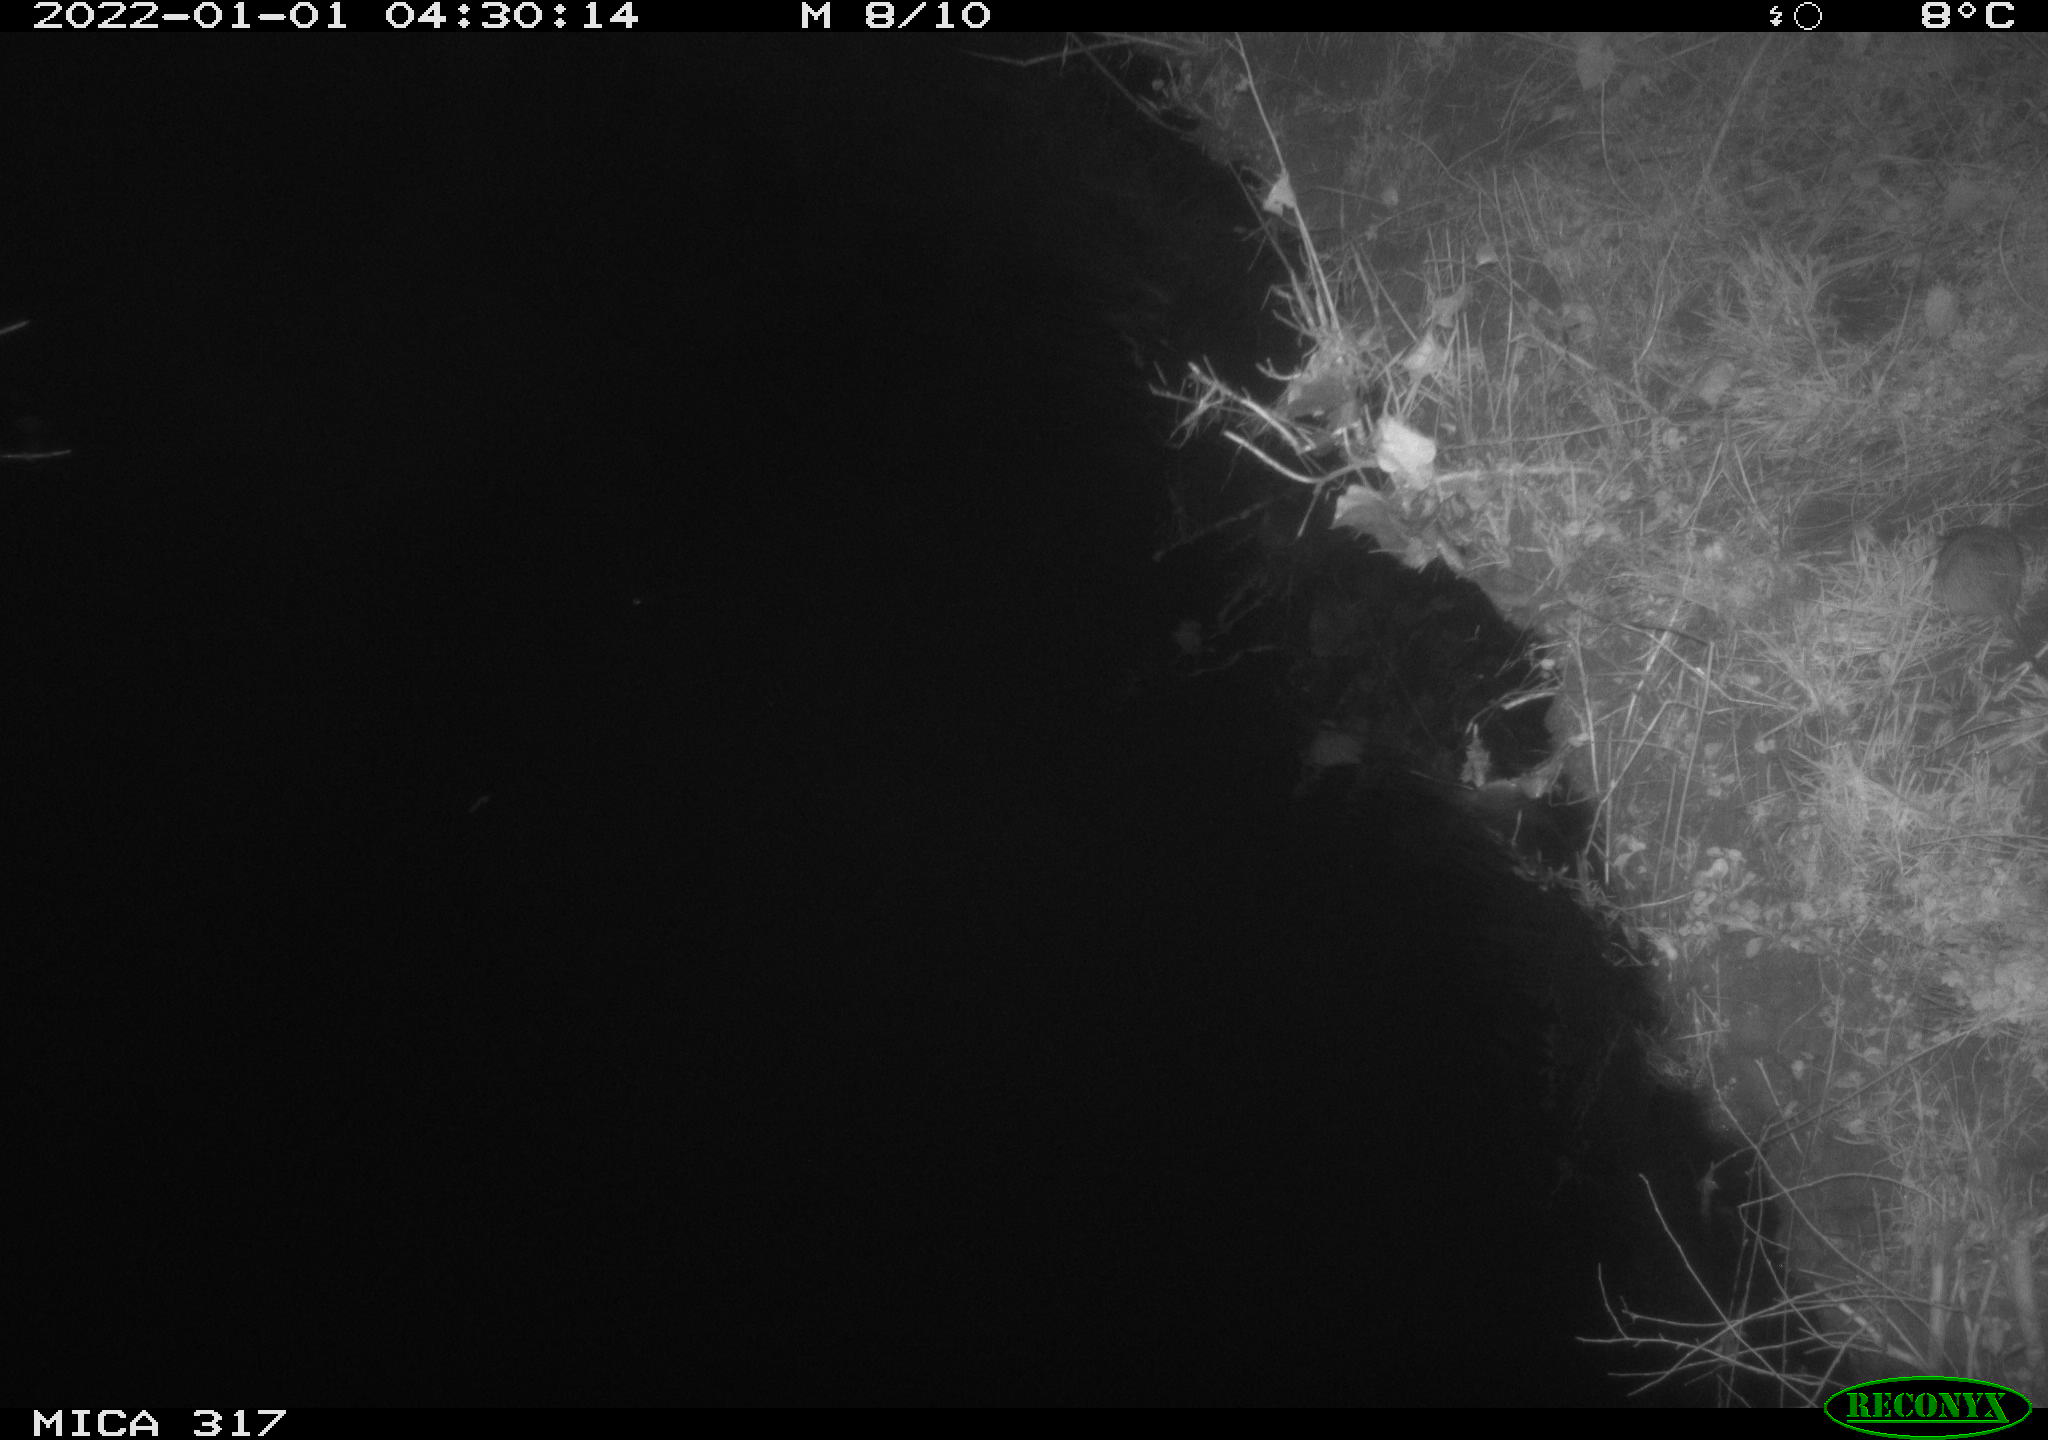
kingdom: Animalia
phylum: Chordata
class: Mammalia
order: Rodentia
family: Muridae
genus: Rattus
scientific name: Rattus norvegicus
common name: Brown rat
